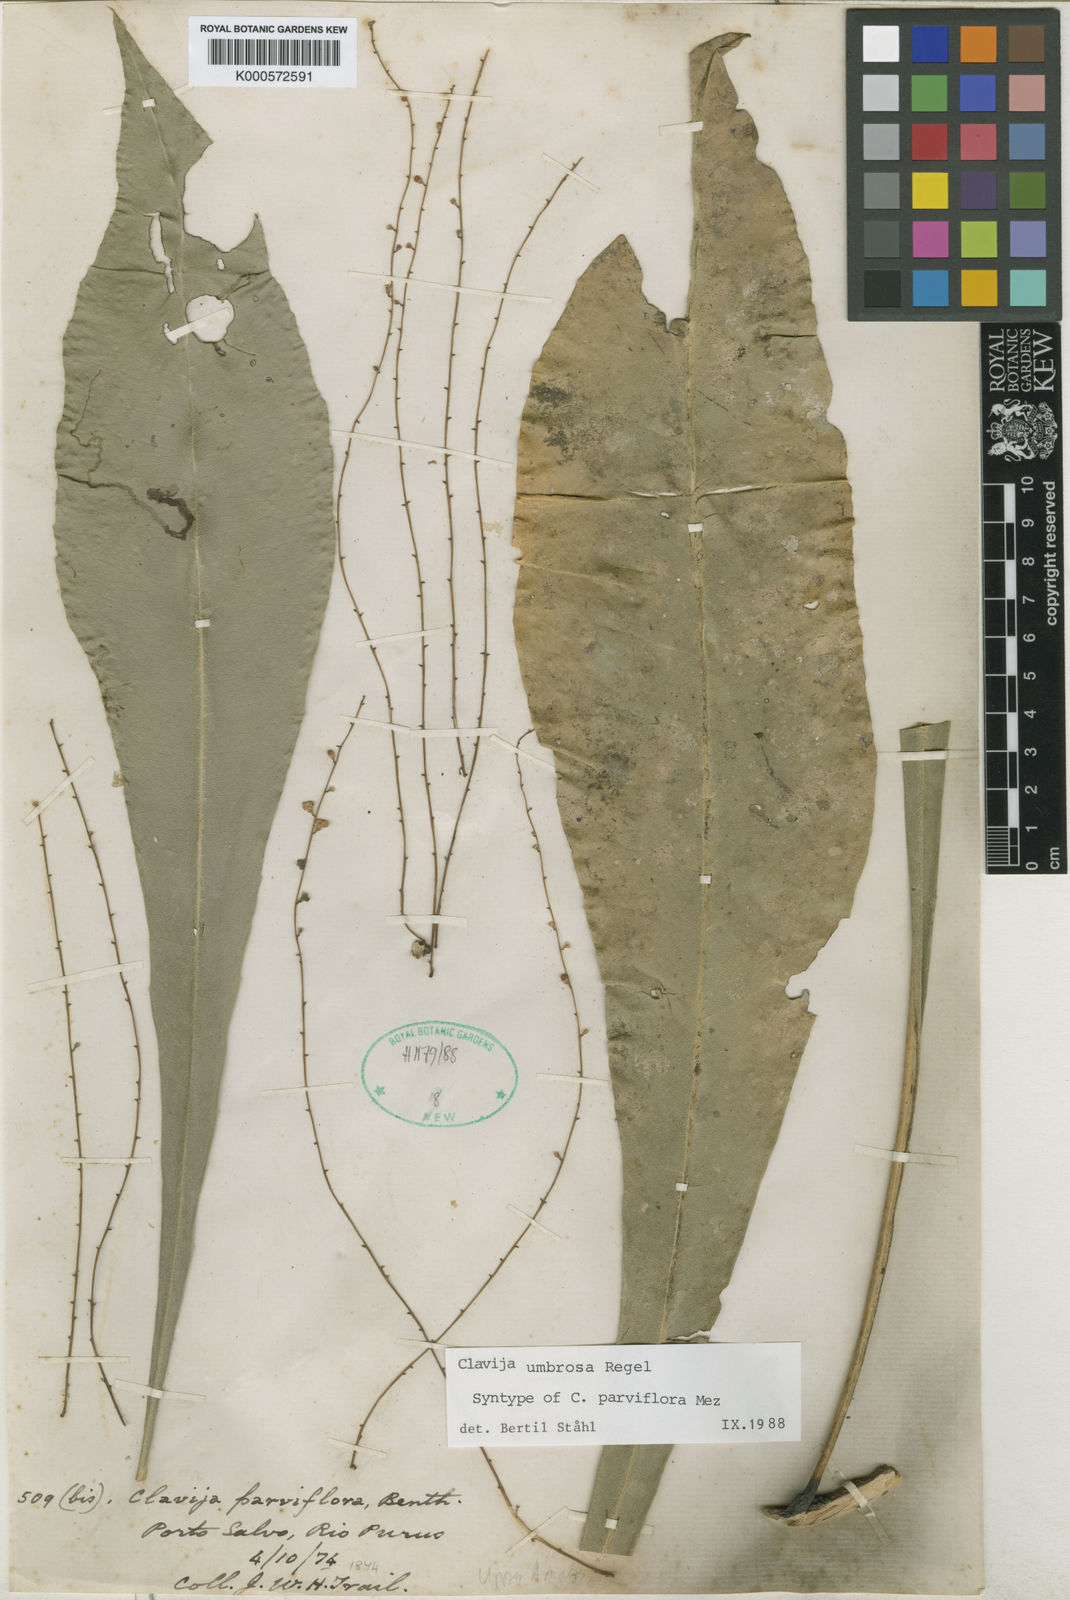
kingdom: Plantae
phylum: Tracheophyta
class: Magnoliopsida
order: Ericales
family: Primulaceae
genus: Clavija
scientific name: Clavija umbrosa
